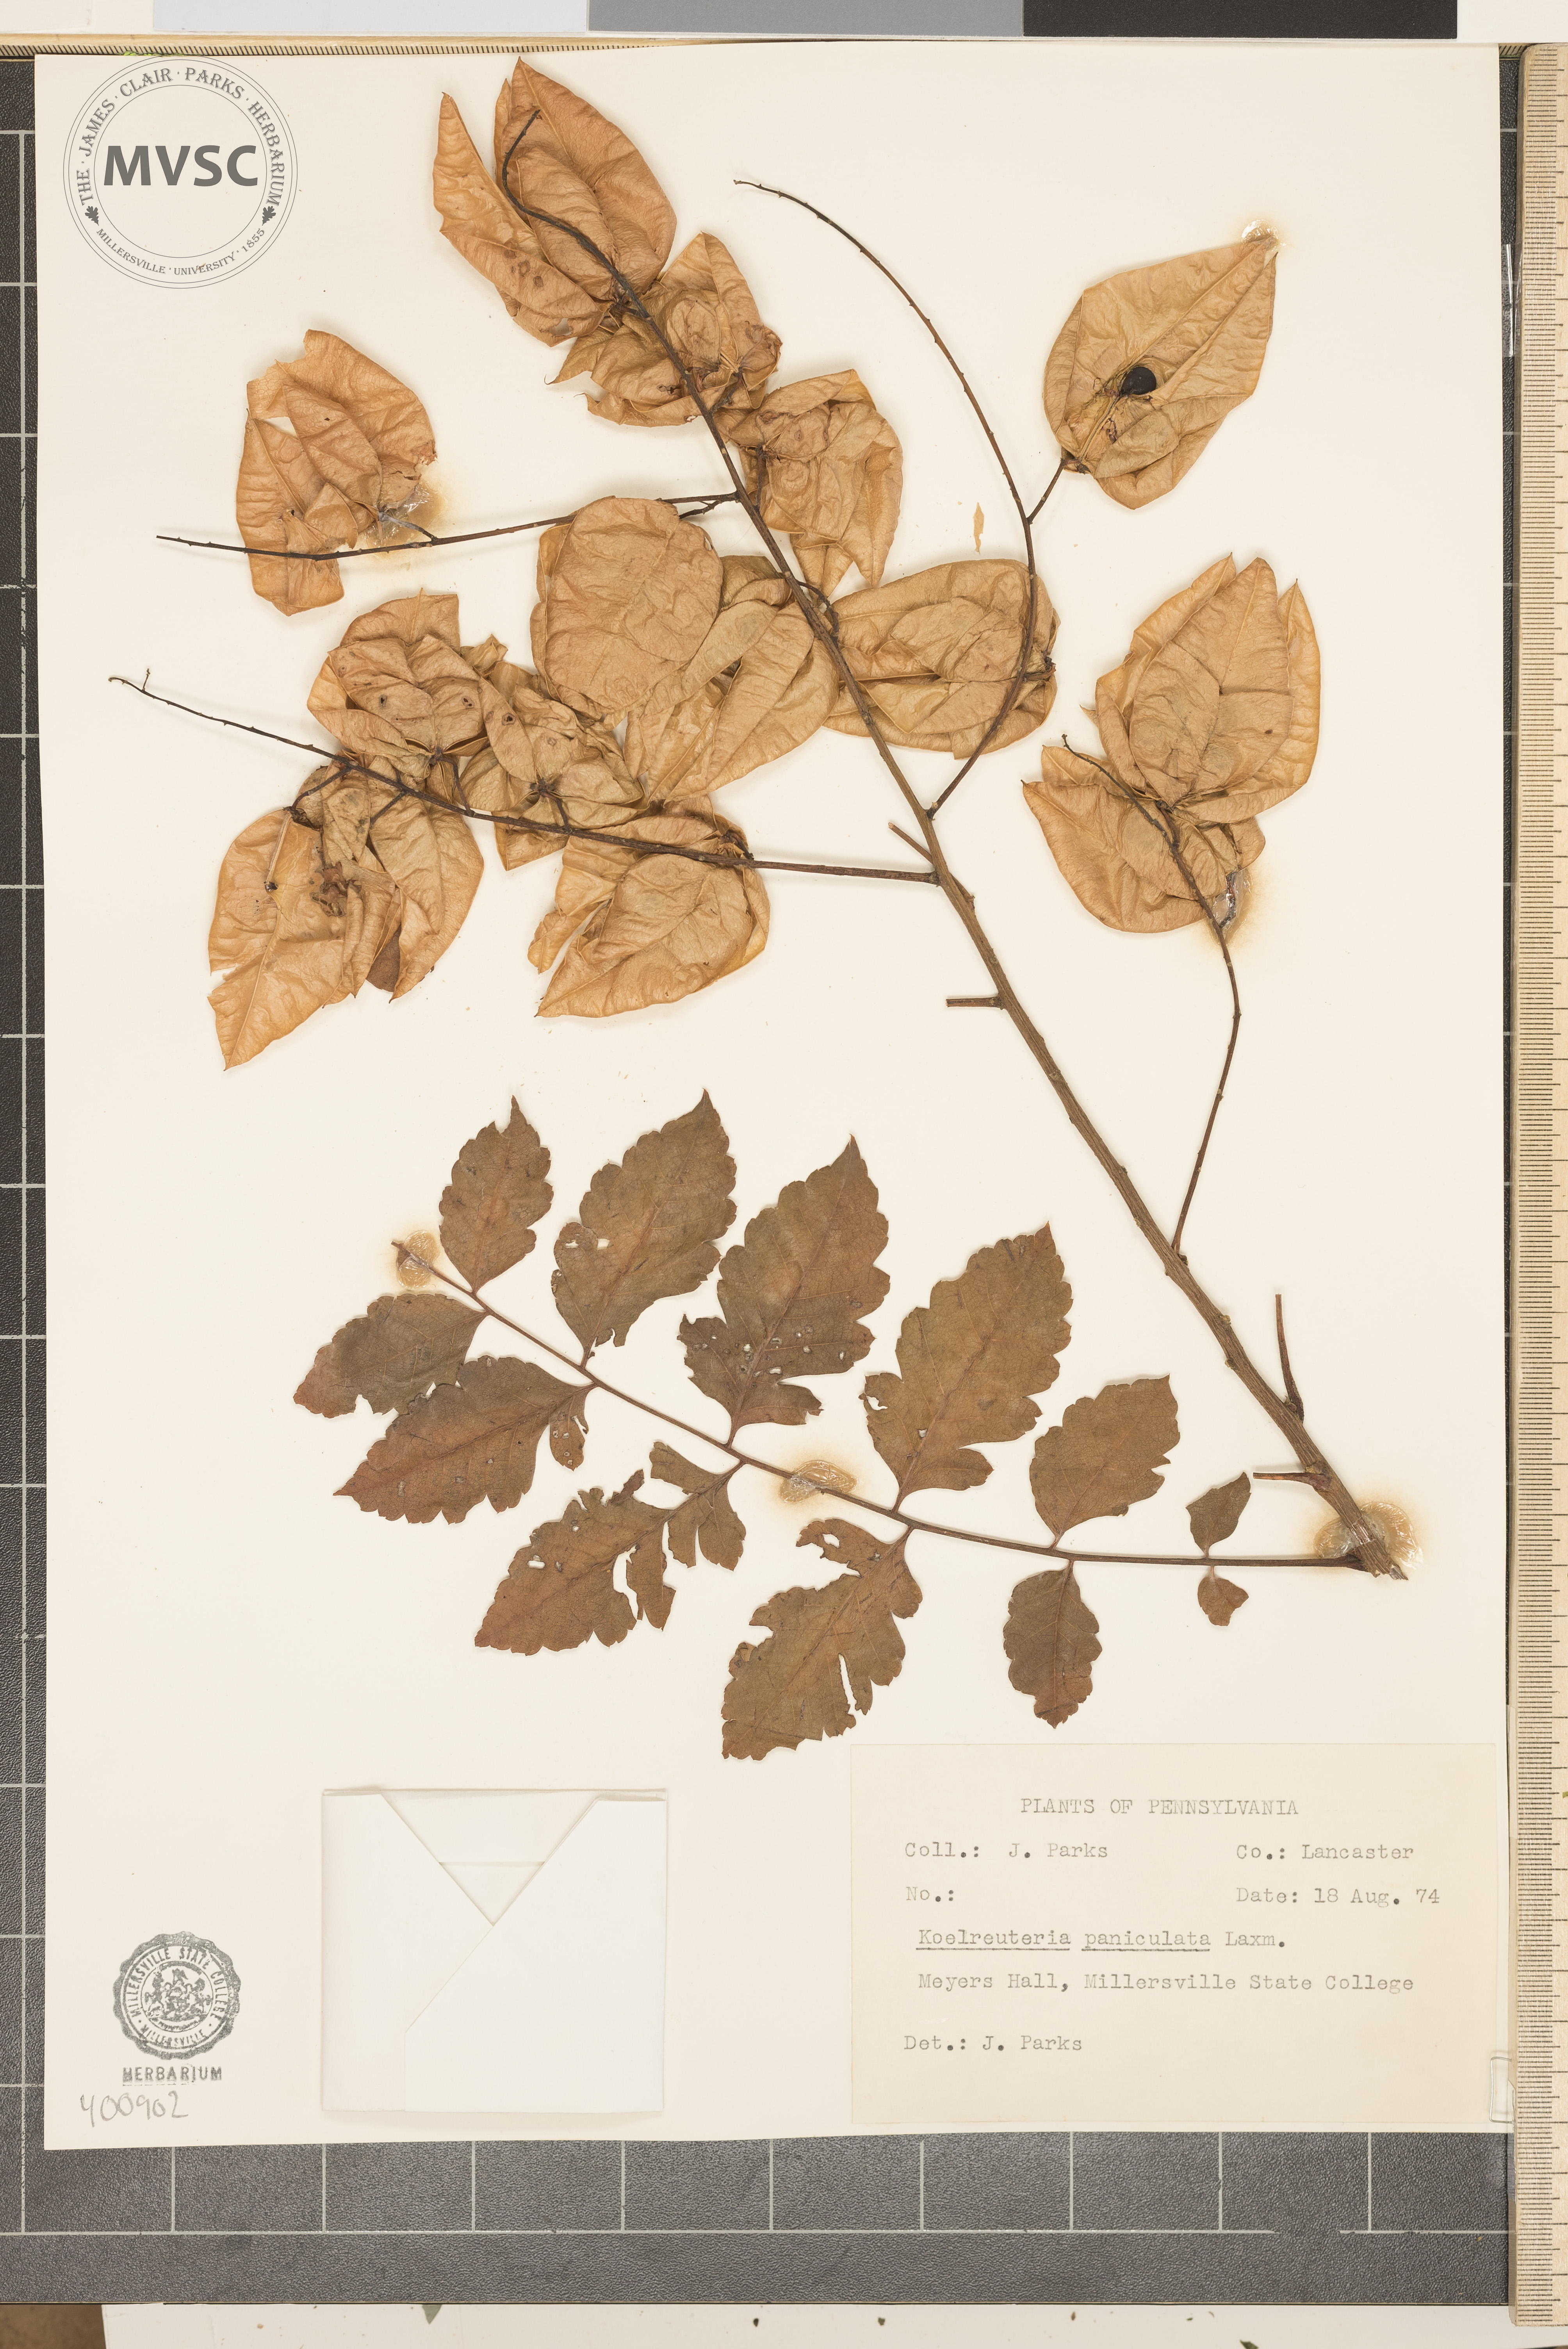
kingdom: Plantae
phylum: Tracheophyta
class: Magnoliopsida
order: Sapindales
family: Sapindaceae
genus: Koelreuteria
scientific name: Koelreuteria paniculata
